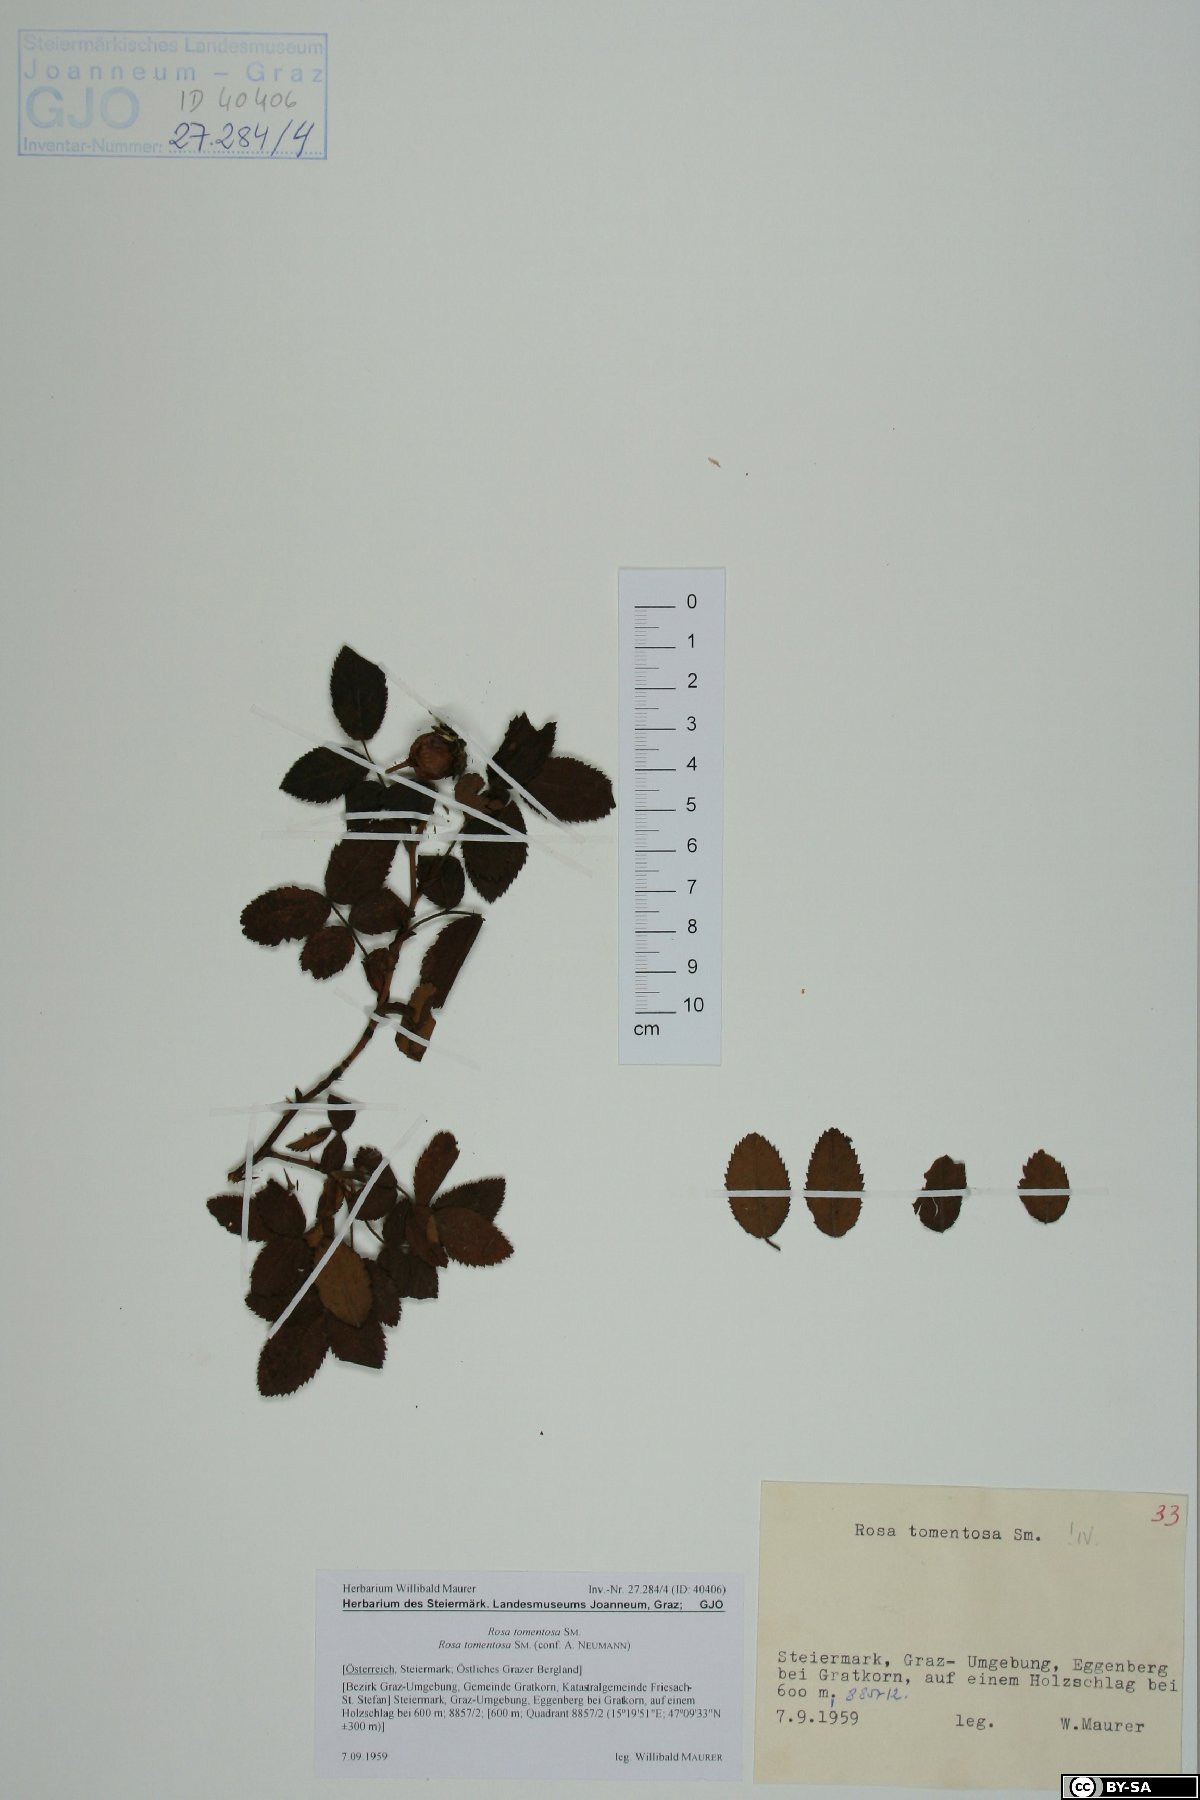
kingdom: Plantae
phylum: Tracheophyta
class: Magnoliopsida
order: Rosales
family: Rosaceae
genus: Rosa
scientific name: Rosa tomentosa
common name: Downy rose
